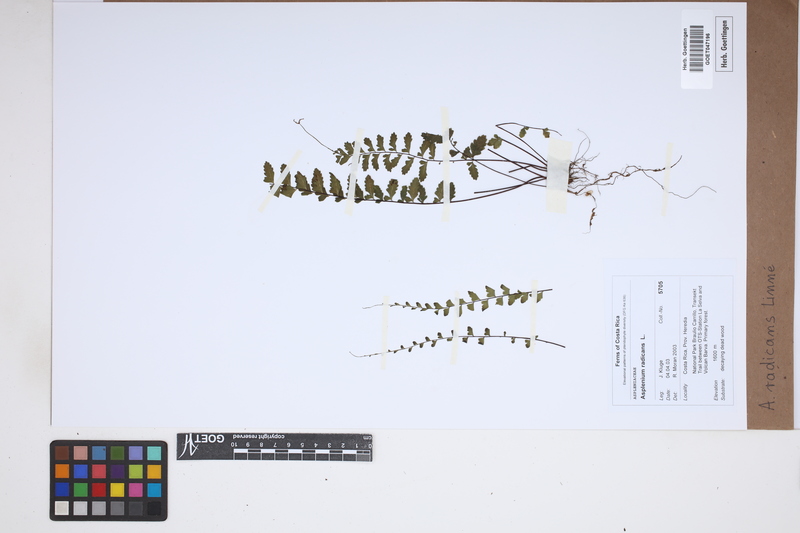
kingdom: Plantae
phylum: Tracheophyta
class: Polypodiopsida
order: Polypodiales
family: Aspleniaceae
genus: Asplenium
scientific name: Asplenium radicans
